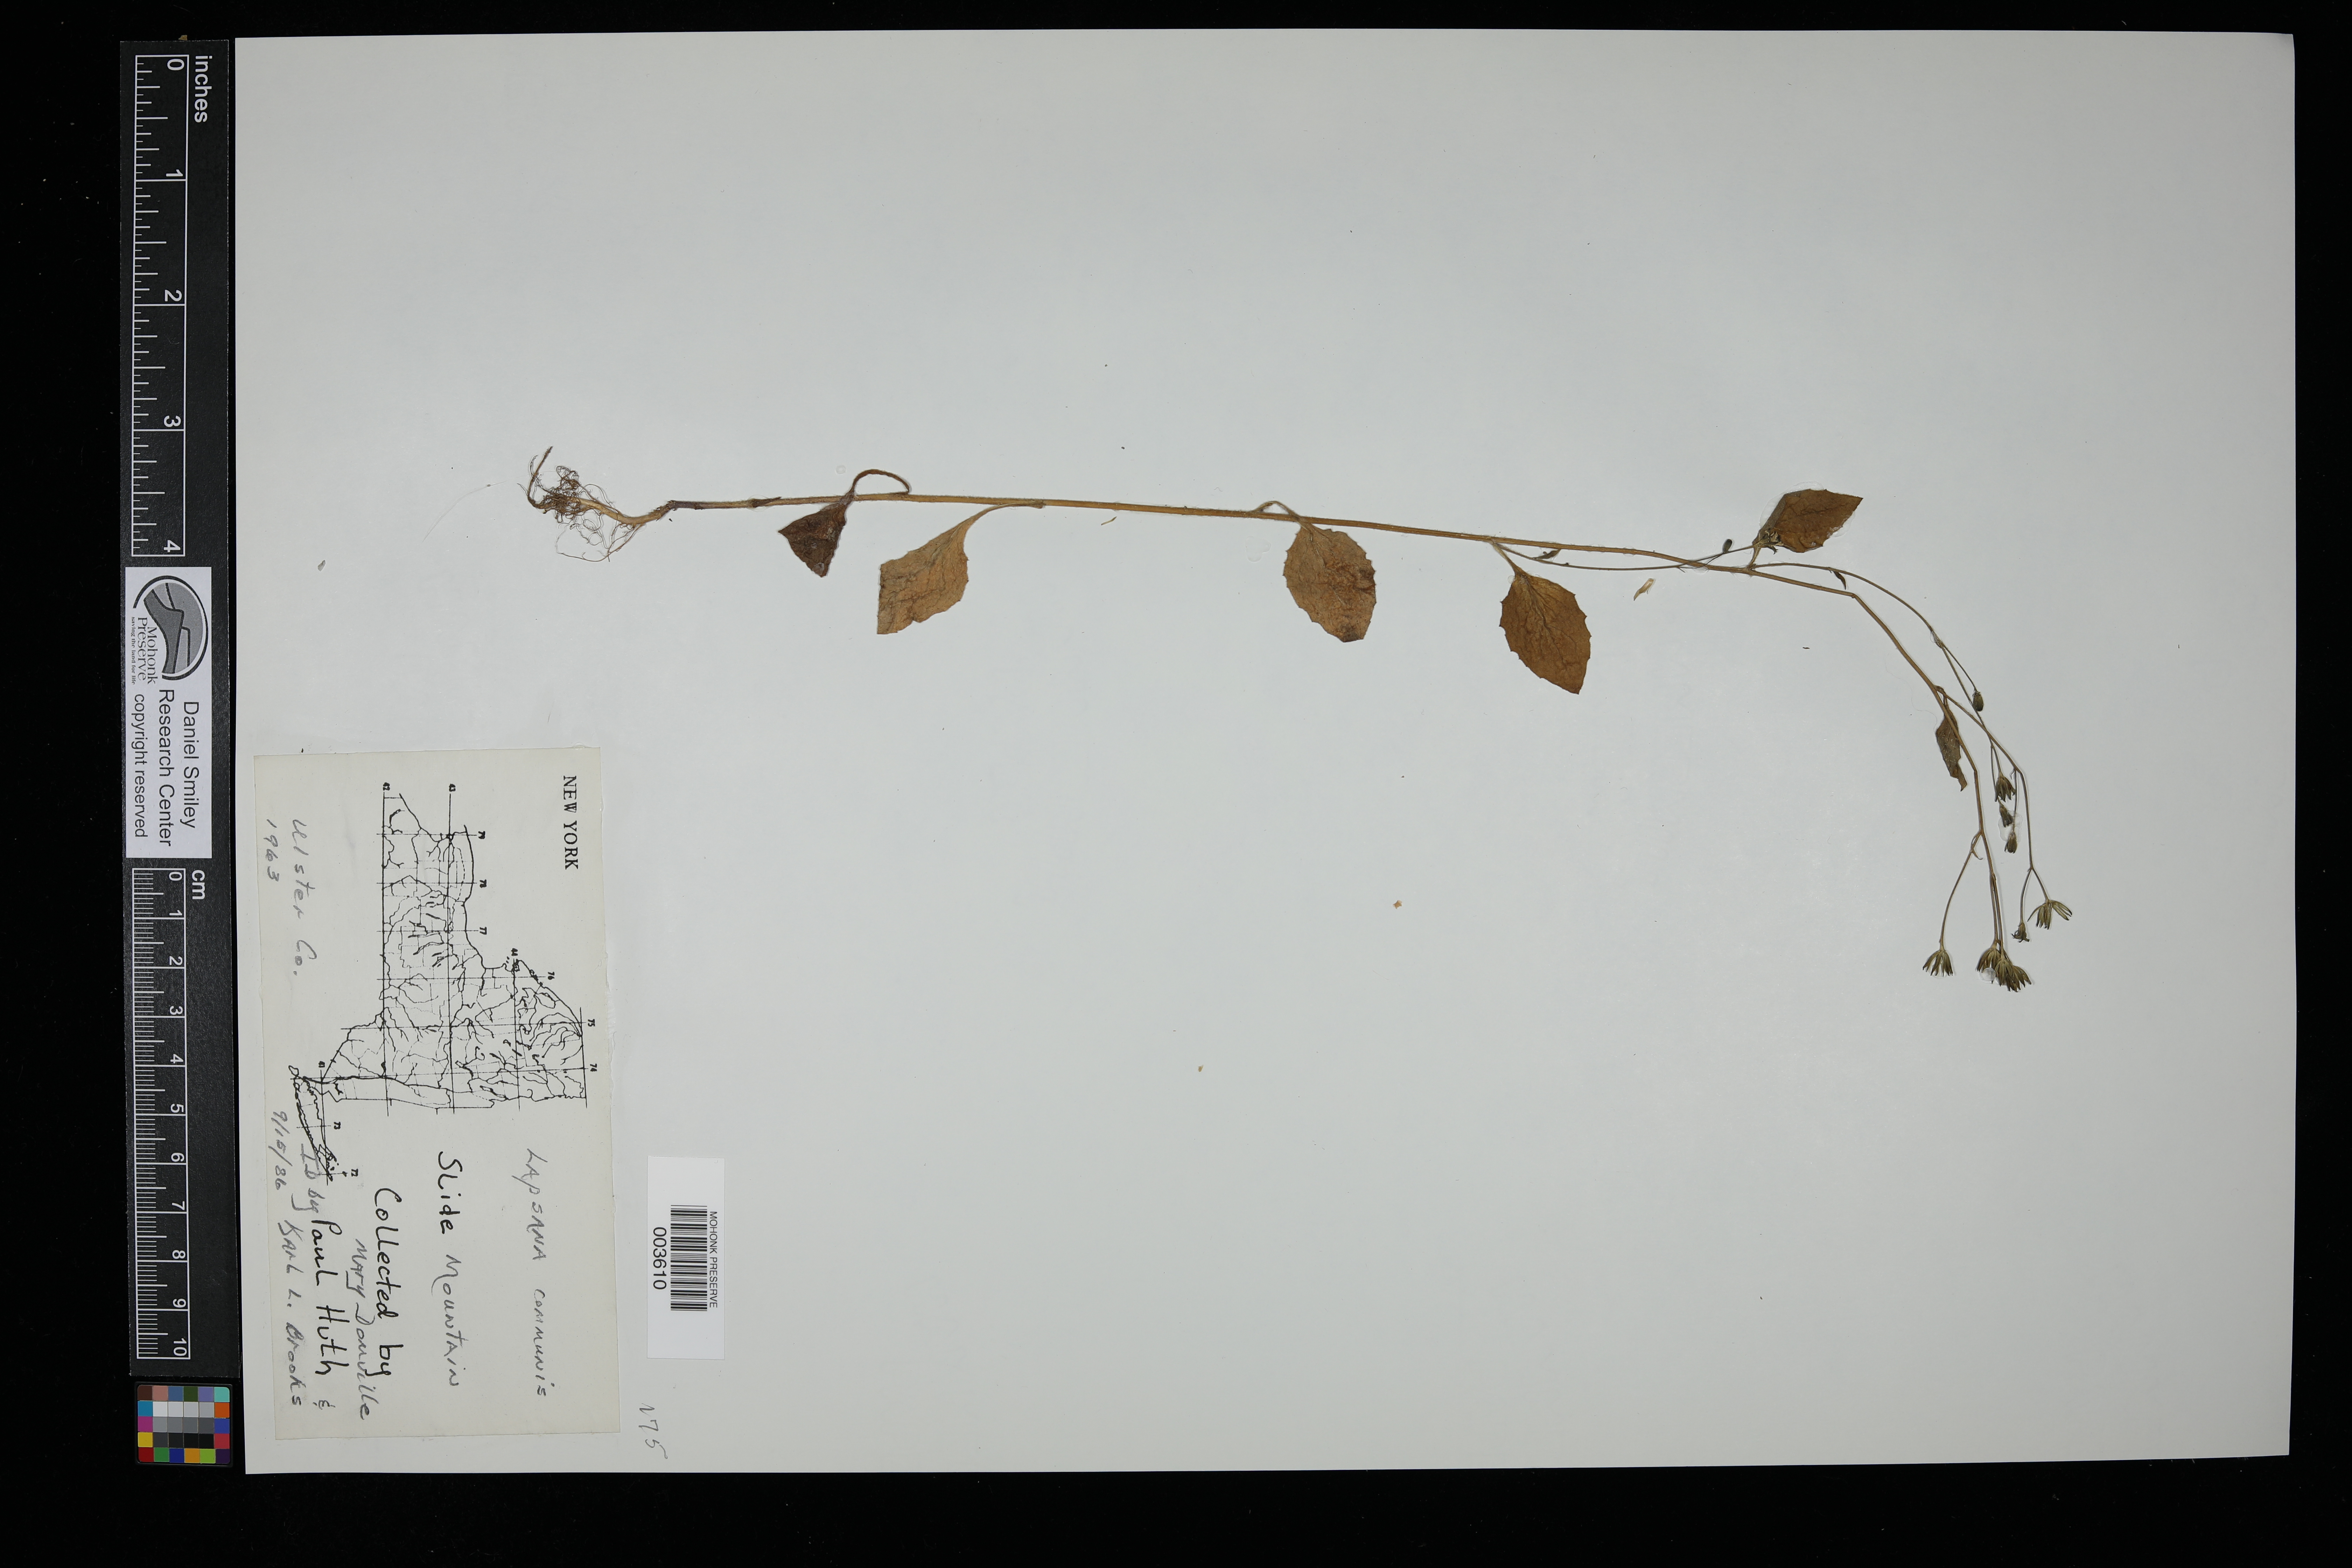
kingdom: Plantae
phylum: Tracheophyta
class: Magnoliopsida
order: Asterales
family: Asteraceae
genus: Lapsana
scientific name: Lapsana communis
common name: Nipplewort
